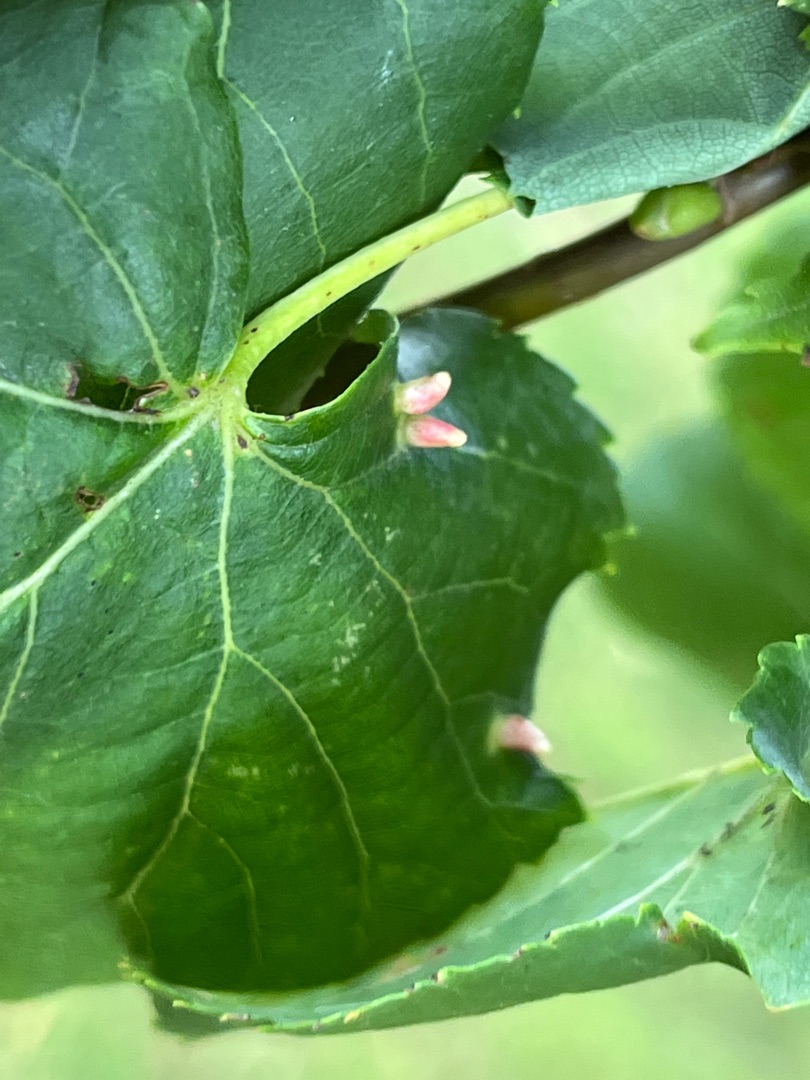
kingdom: Animalia
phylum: Arthropoda
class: Arachnida
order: Trombidiformes
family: Eriophyidae
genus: Eriophyes
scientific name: Eriophyes lateannulatus
